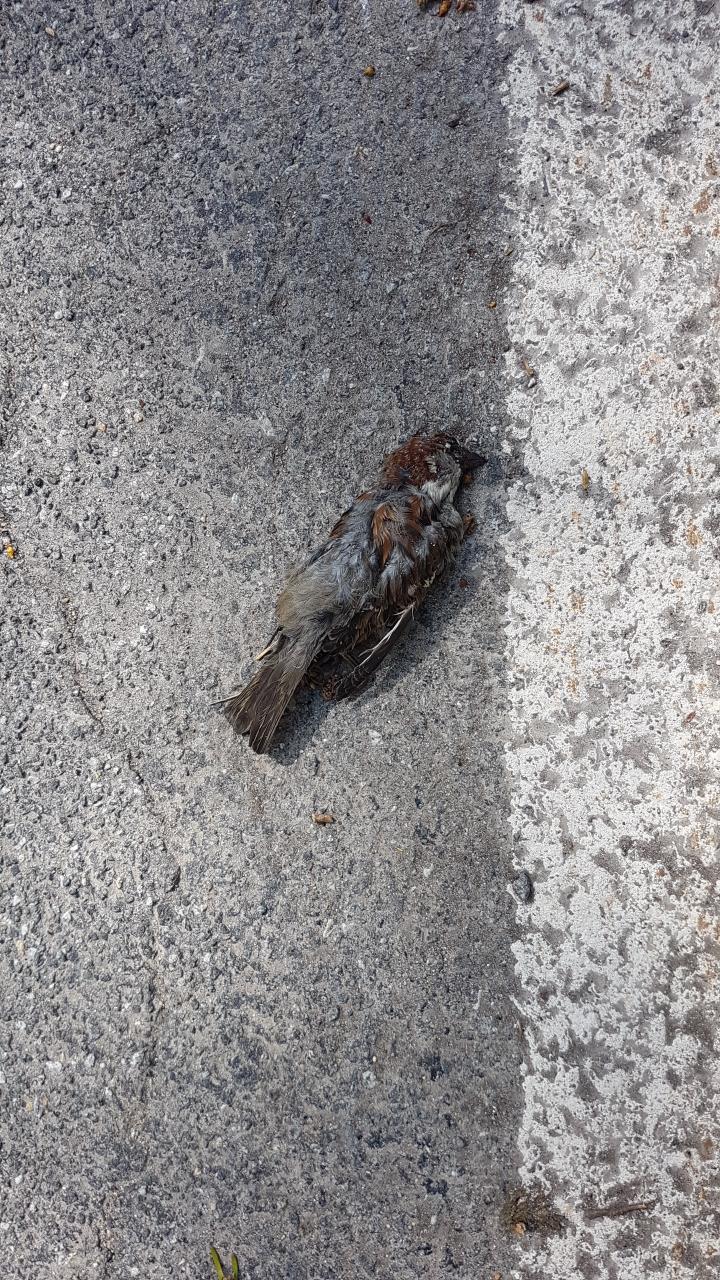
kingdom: Animalia
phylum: Chordata
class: Aves
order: Passeriformes
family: Passeridae
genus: Passer
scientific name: Passer domesticus
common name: House sparrow
